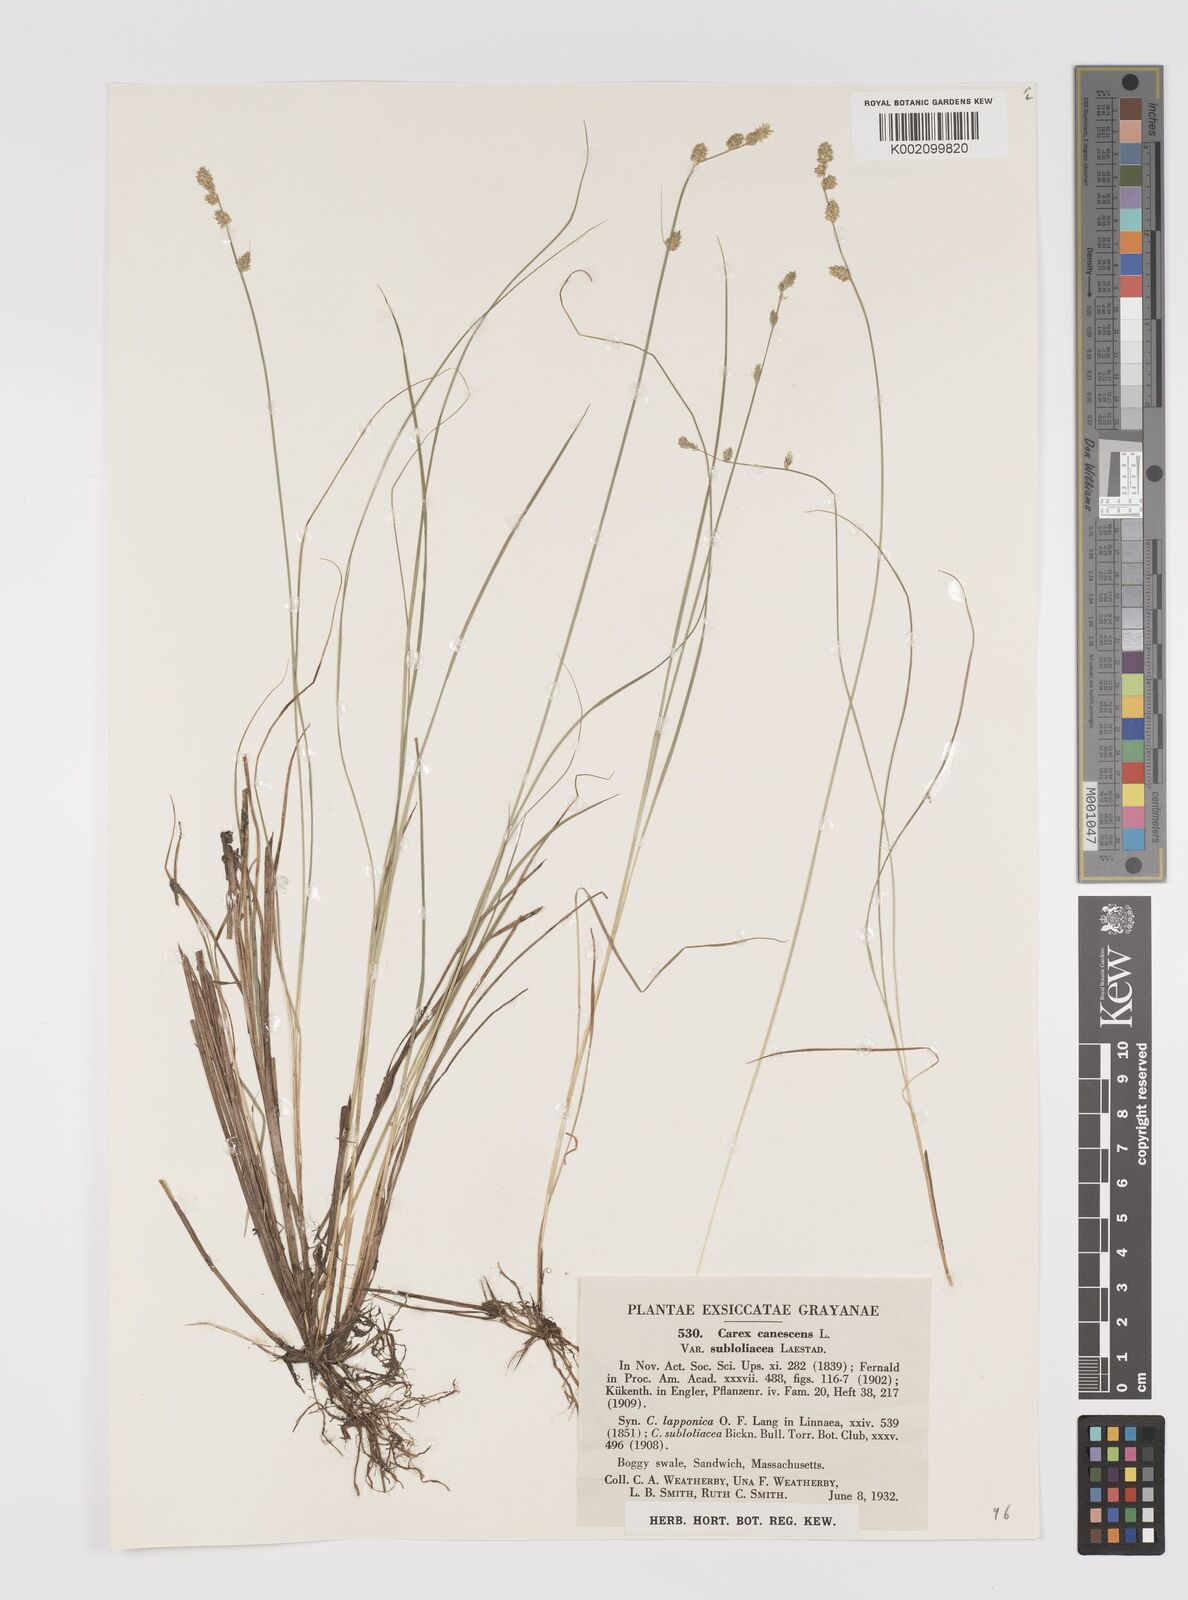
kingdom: Plantae
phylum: Tracheophyta
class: Liliopsida
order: Poales
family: Cyperaceae
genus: Carex
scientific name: Carex curta
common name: White sedge
